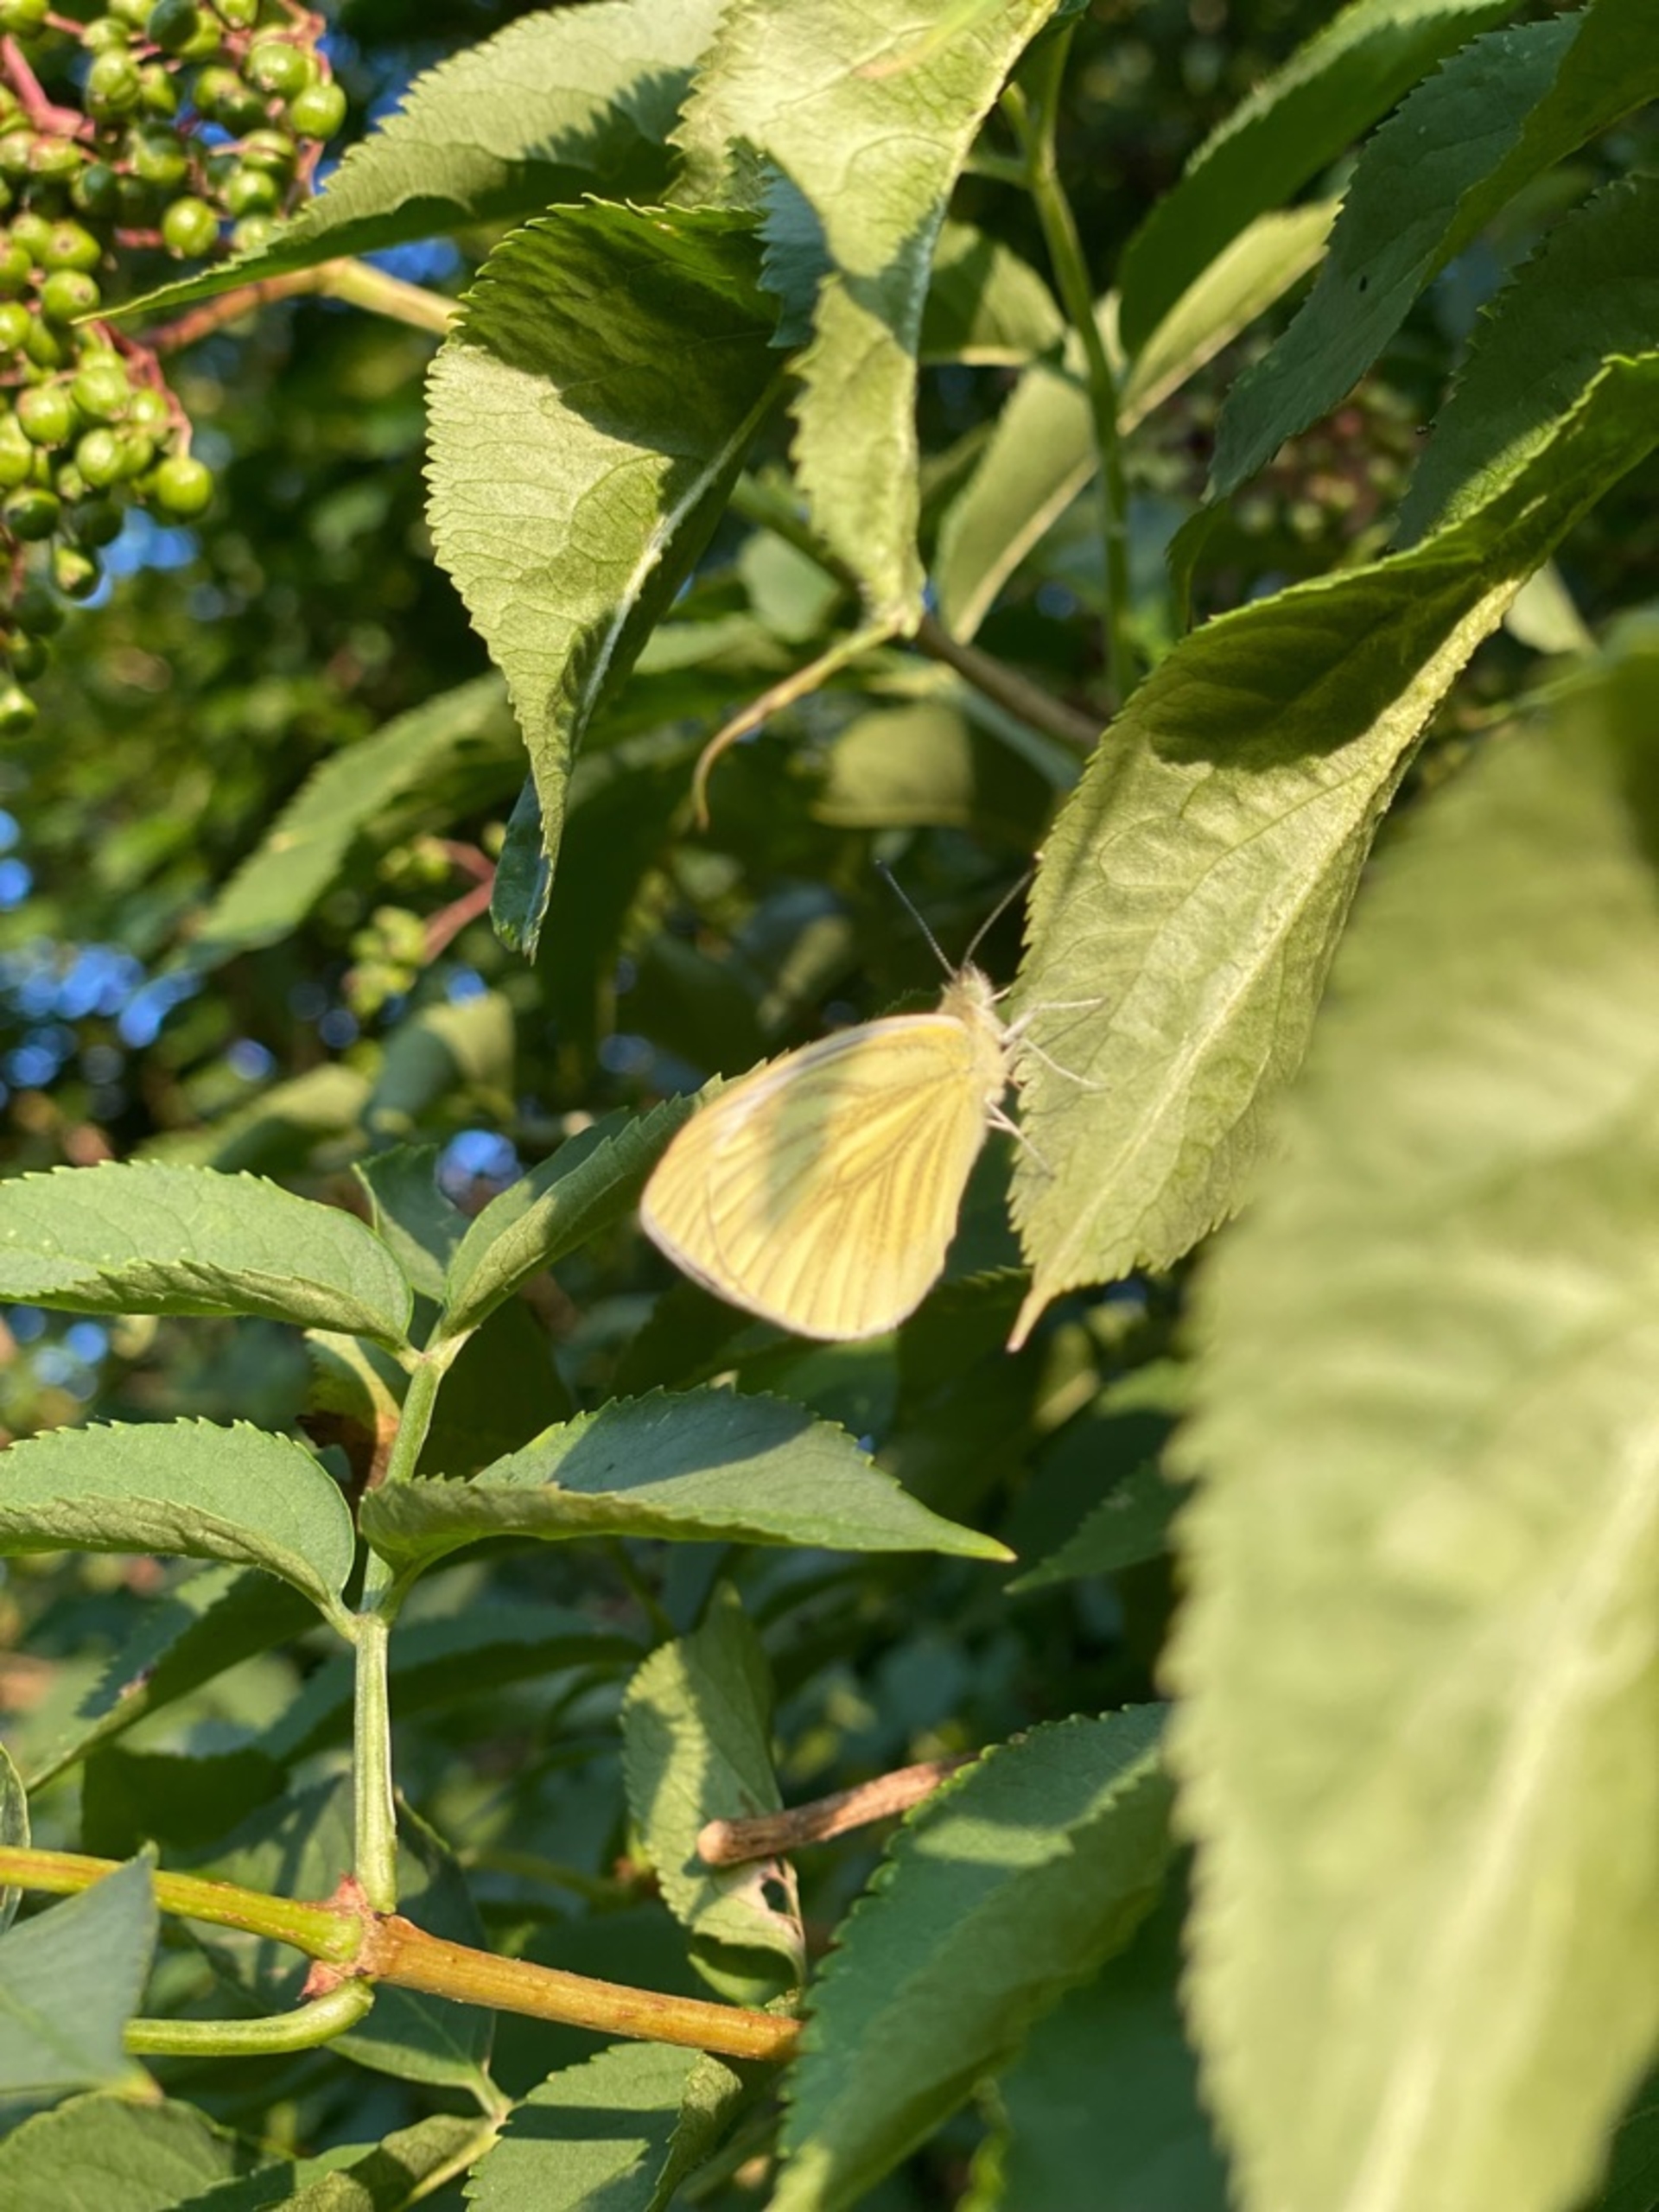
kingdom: Animalia
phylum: Arthropoda
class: Insecta
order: Lepidoptera
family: Pieridae
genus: Pieris
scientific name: Pieris napi
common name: Grønåret kålsommerfugl
